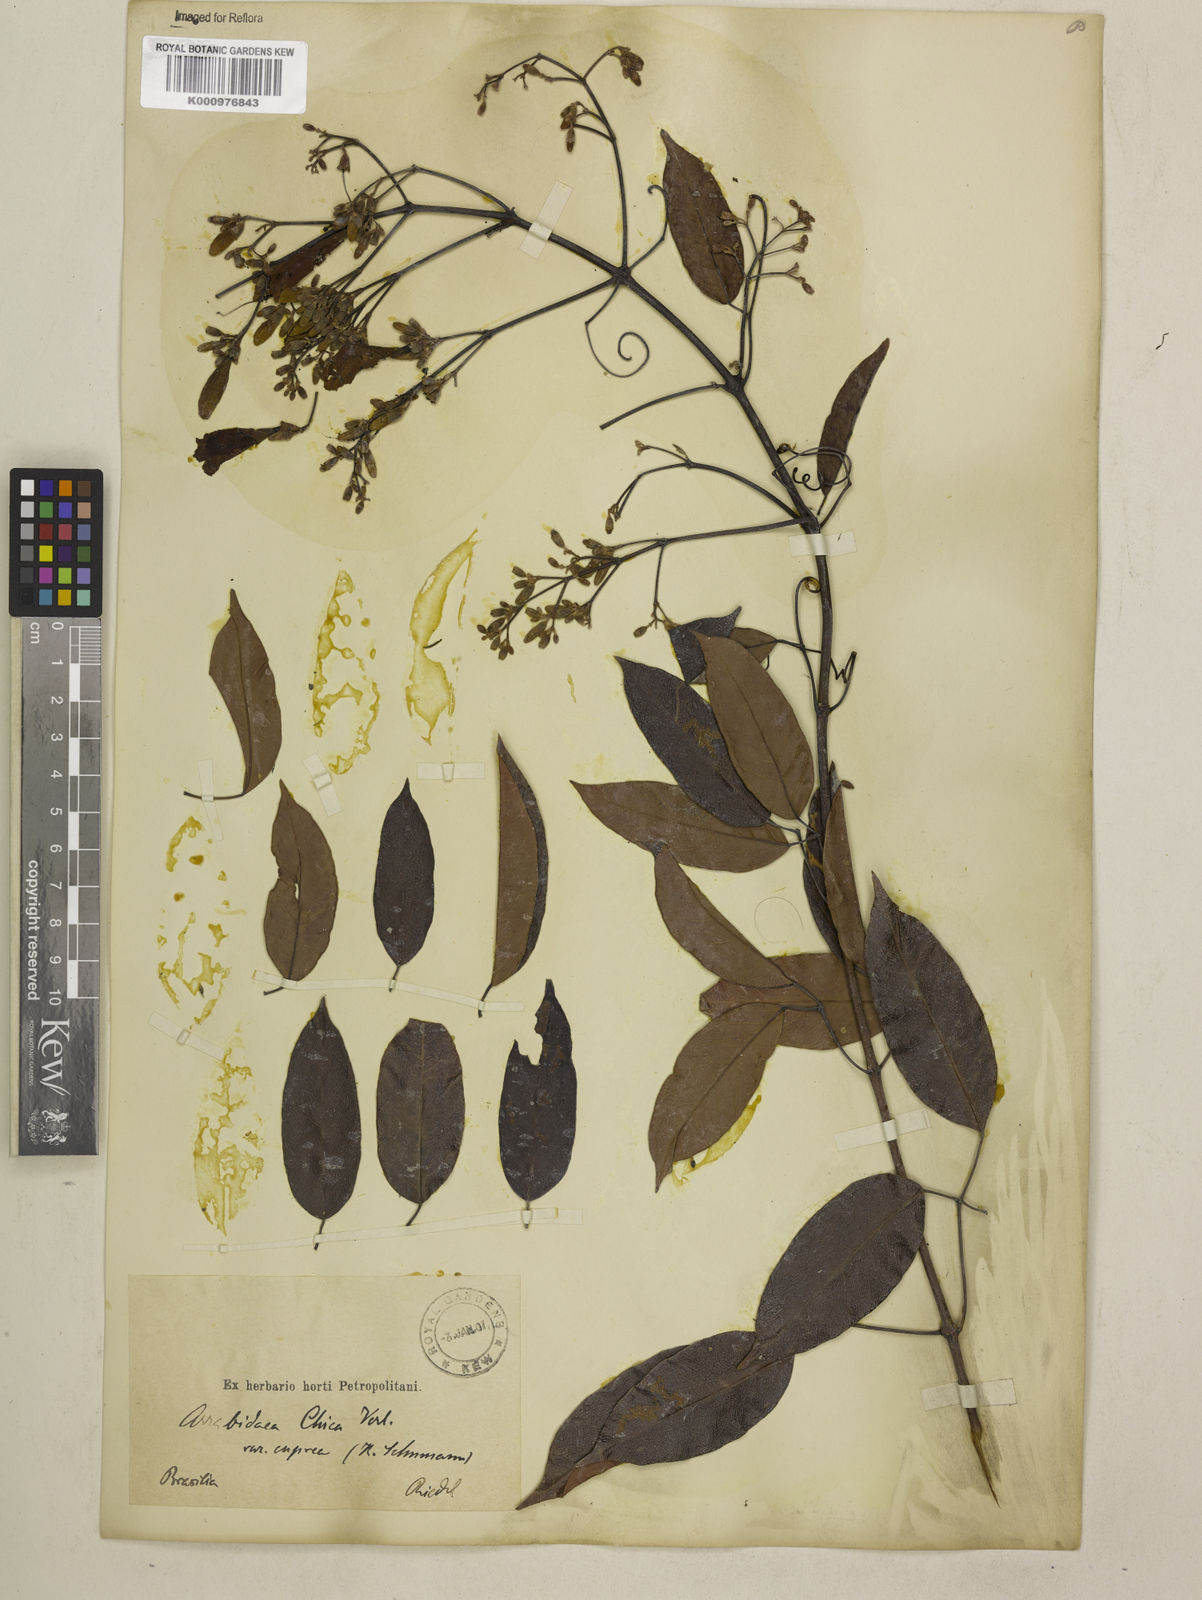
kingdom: Plantae
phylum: Tracheophyta
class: Magnoliopsida
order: Lamiales
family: Bignoniaceae
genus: Fridericia
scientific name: Fridericia chica
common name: Cricketvine
